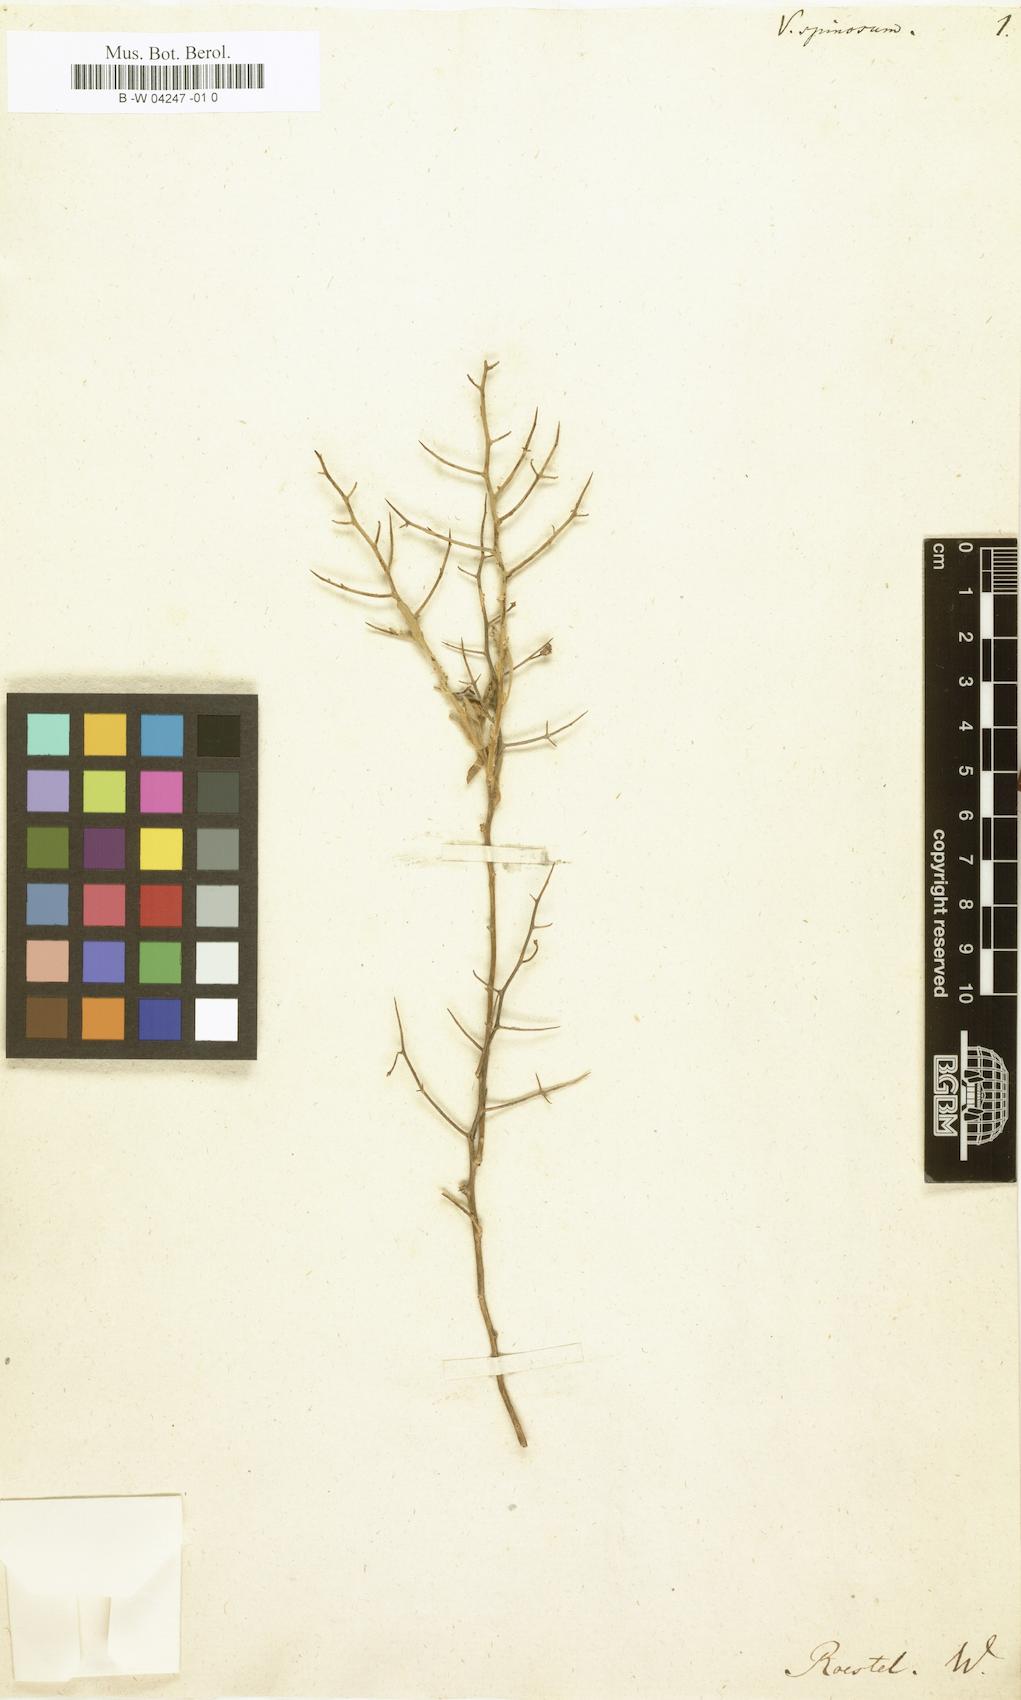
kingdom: Plantae
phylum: Tracheophyta
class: Magnoliopsida
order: Lamiales
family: Scrophulariaceae
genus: Verbascum
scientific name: Verbascum spinosum
